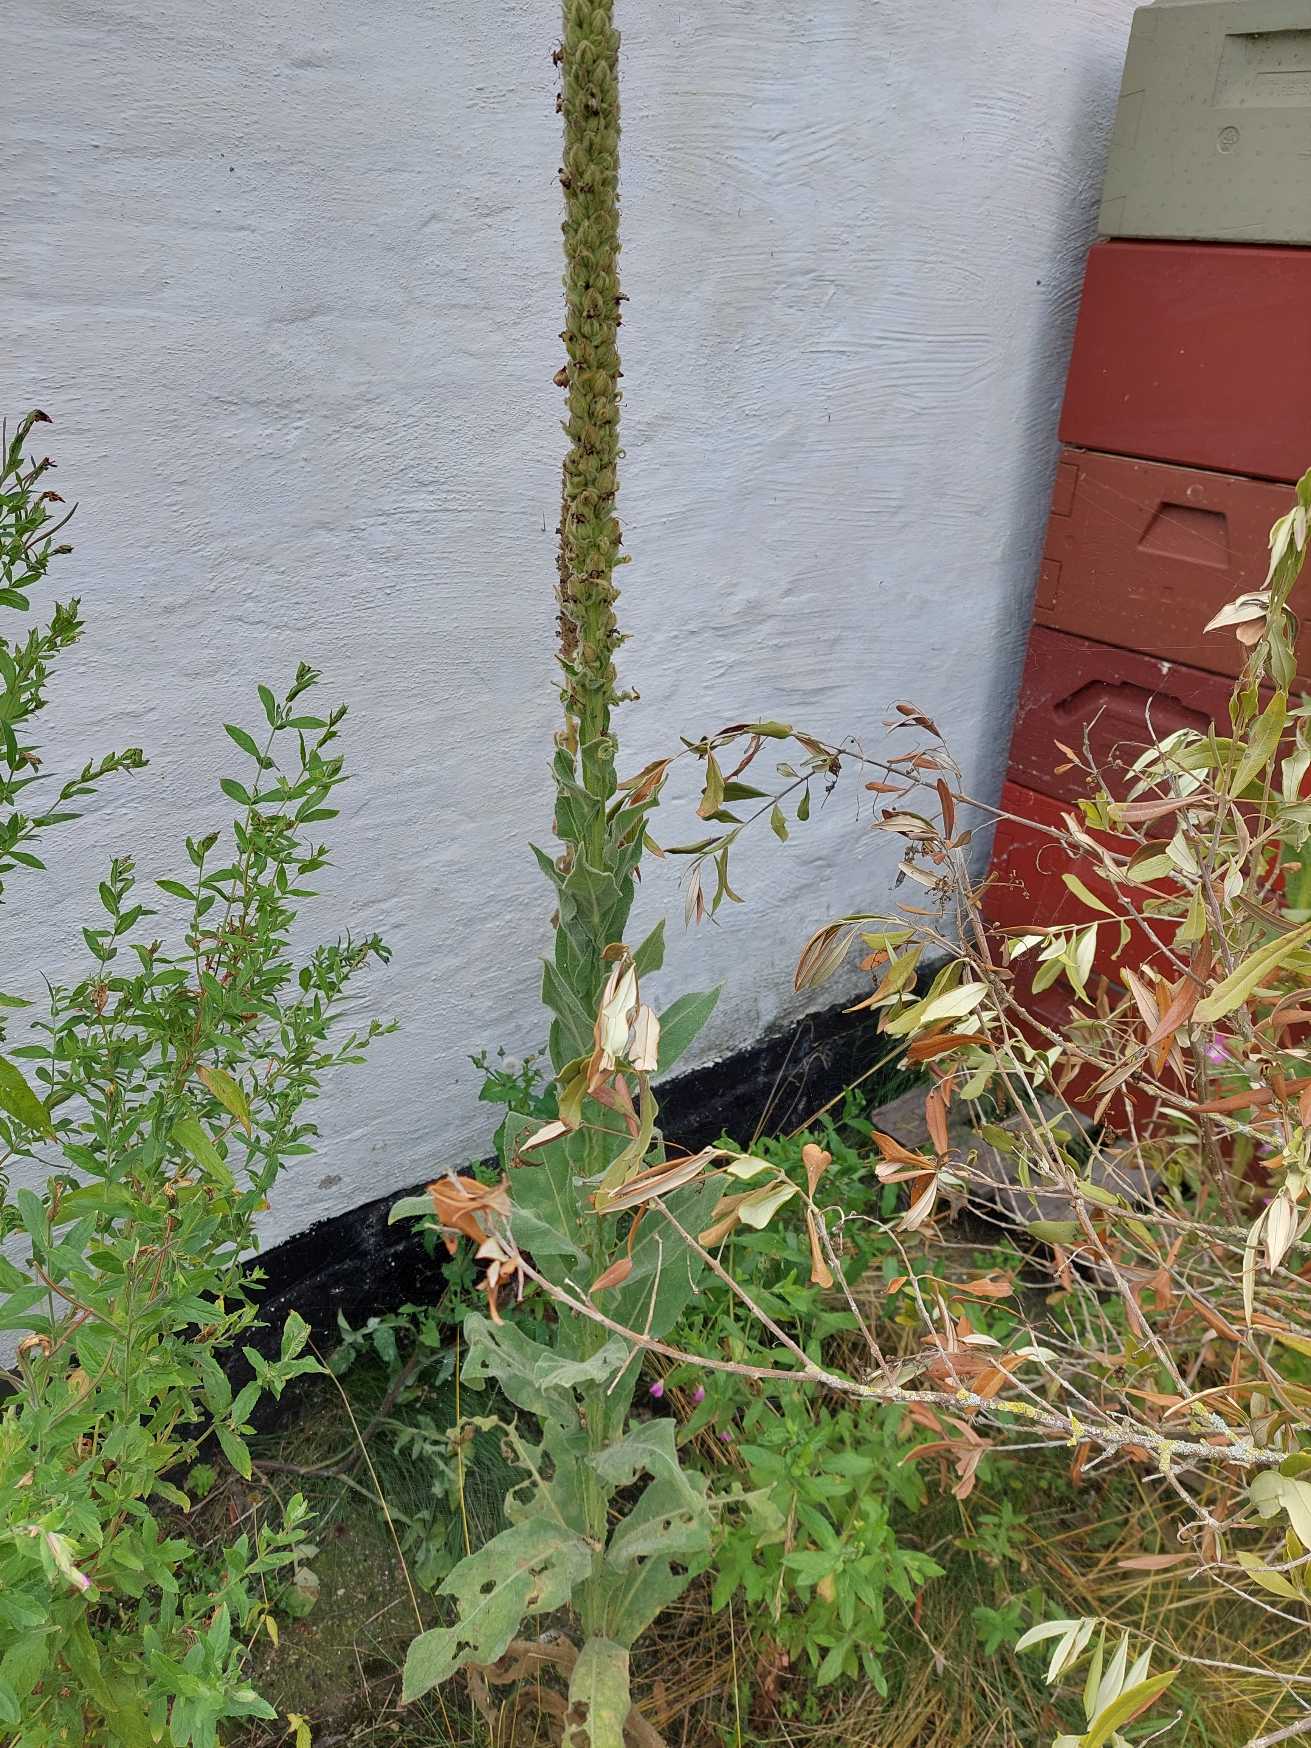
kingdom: Plantae
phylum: Tracheophyta
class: Magnoliopsida
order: Lamiales
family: Scrophulariaceae
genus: Verbascum
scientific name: Verbascum thapsus
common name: Filtbladet kongelys
